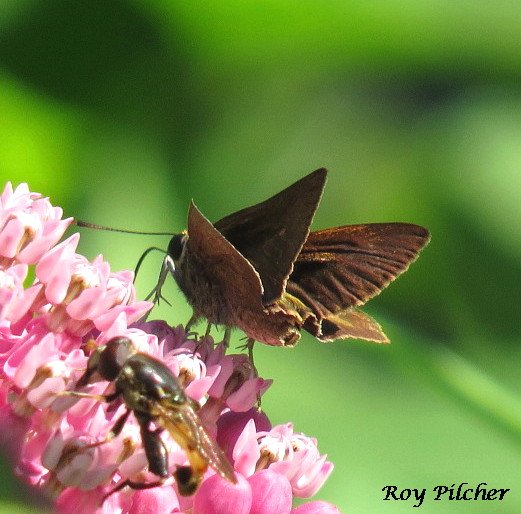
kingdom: Animalia
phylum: Arthropoda
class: Insecta
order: Lepidoptera
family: Hesperiidae
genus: Euphyes
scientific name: Euphyes vestris
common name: Dun Skipper
